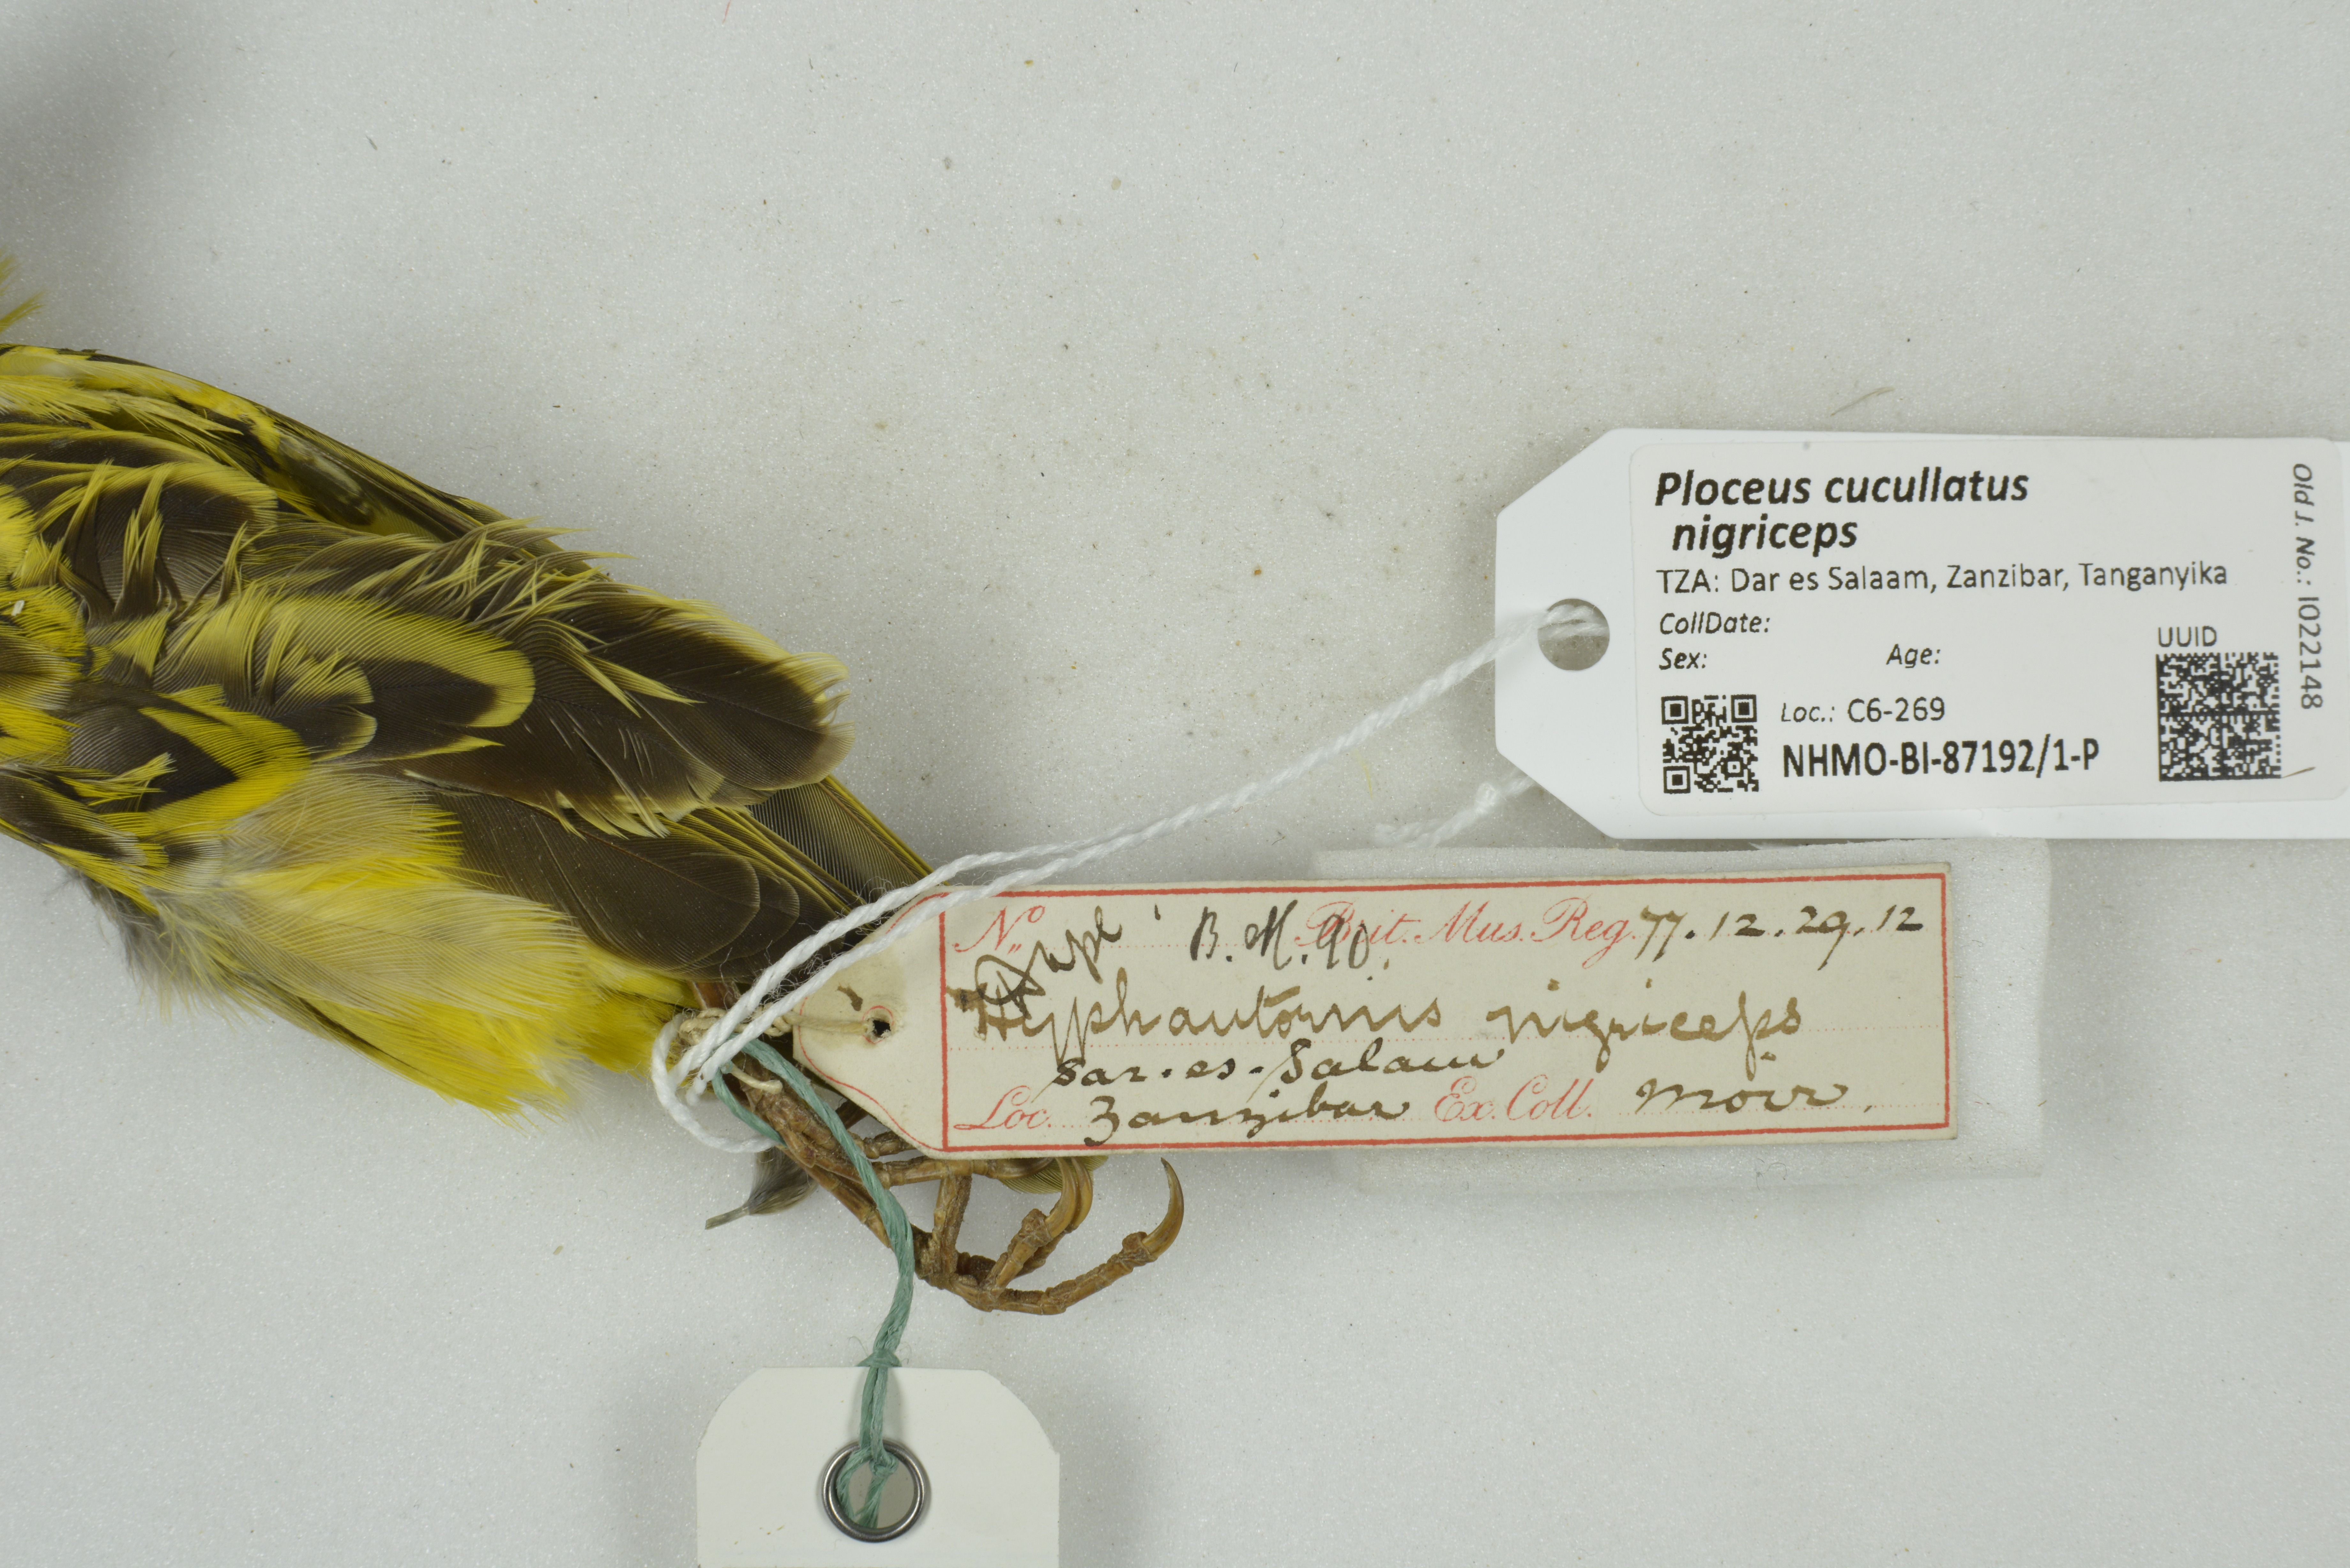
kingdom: Animalia
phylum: Chordata
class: Aves
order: Passeriformes
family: Ploceidae
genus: Ploceus
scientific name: Ploceus cucullatus
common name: Village weaver
